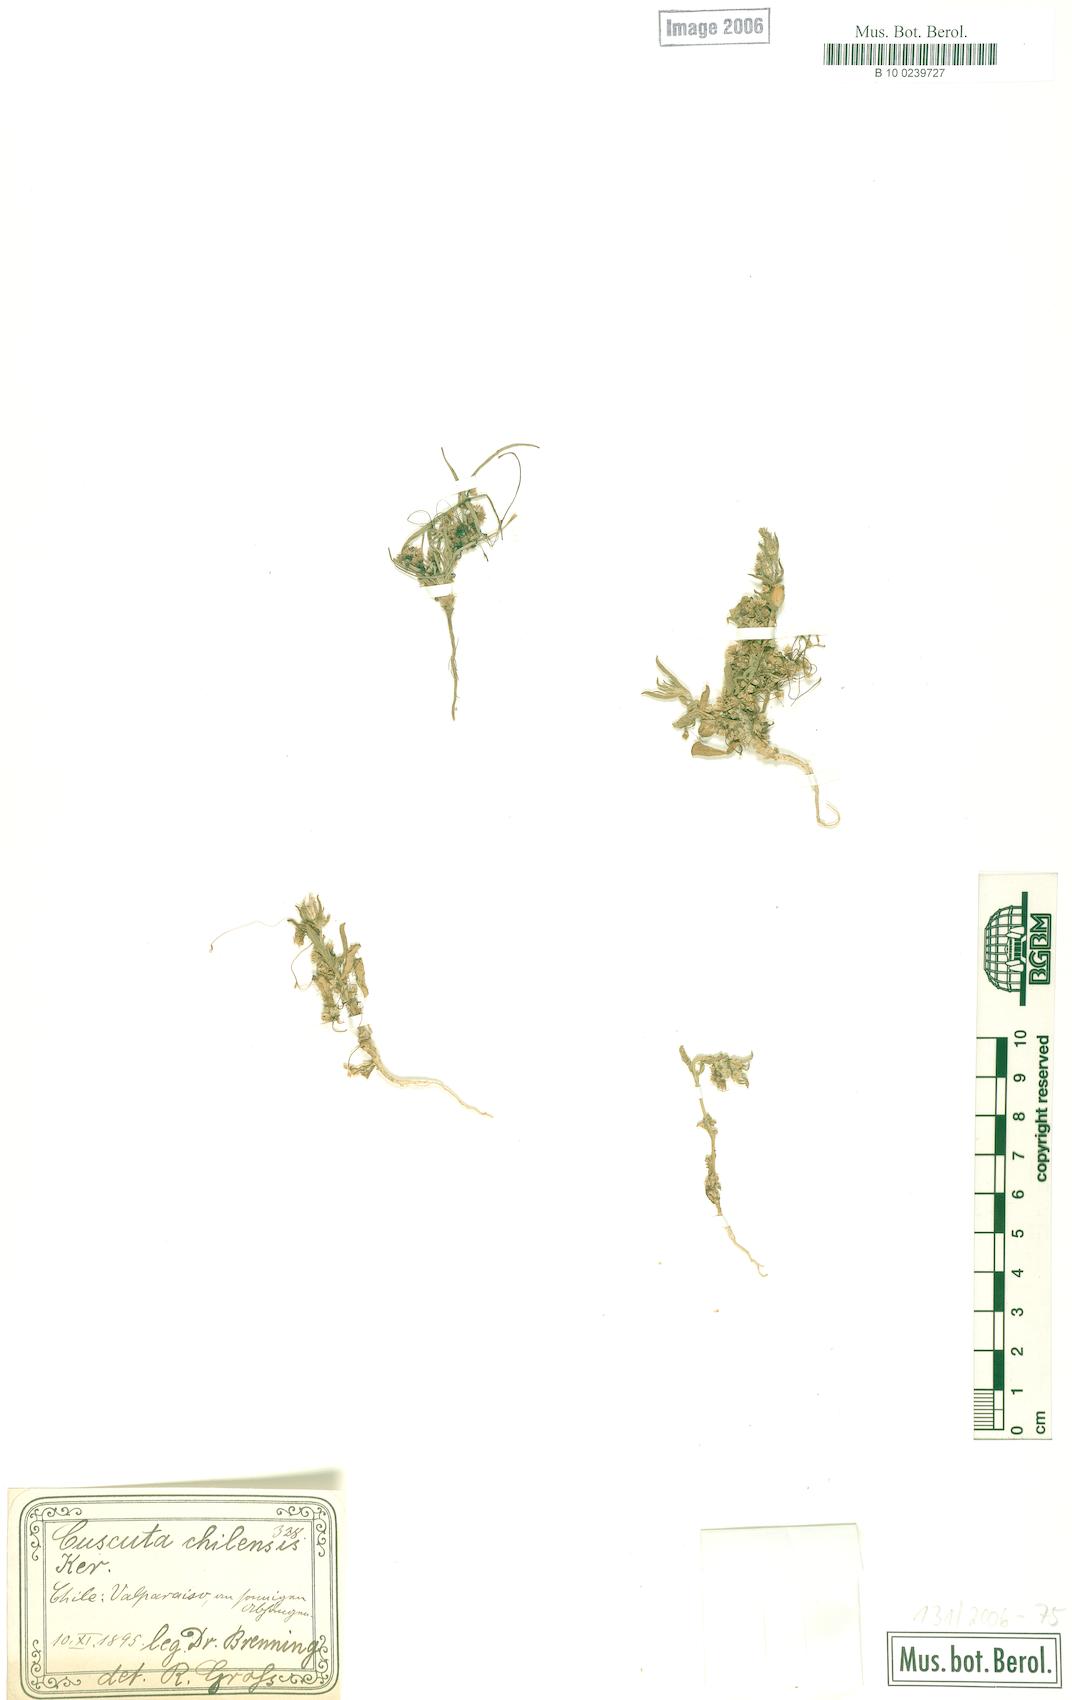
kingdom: Plantae
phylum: Tracheophyta
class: Magnoliopsida
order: Solanales
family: Convolvulaceae
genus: Cuscuta
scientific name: Cuscuta chilensis
